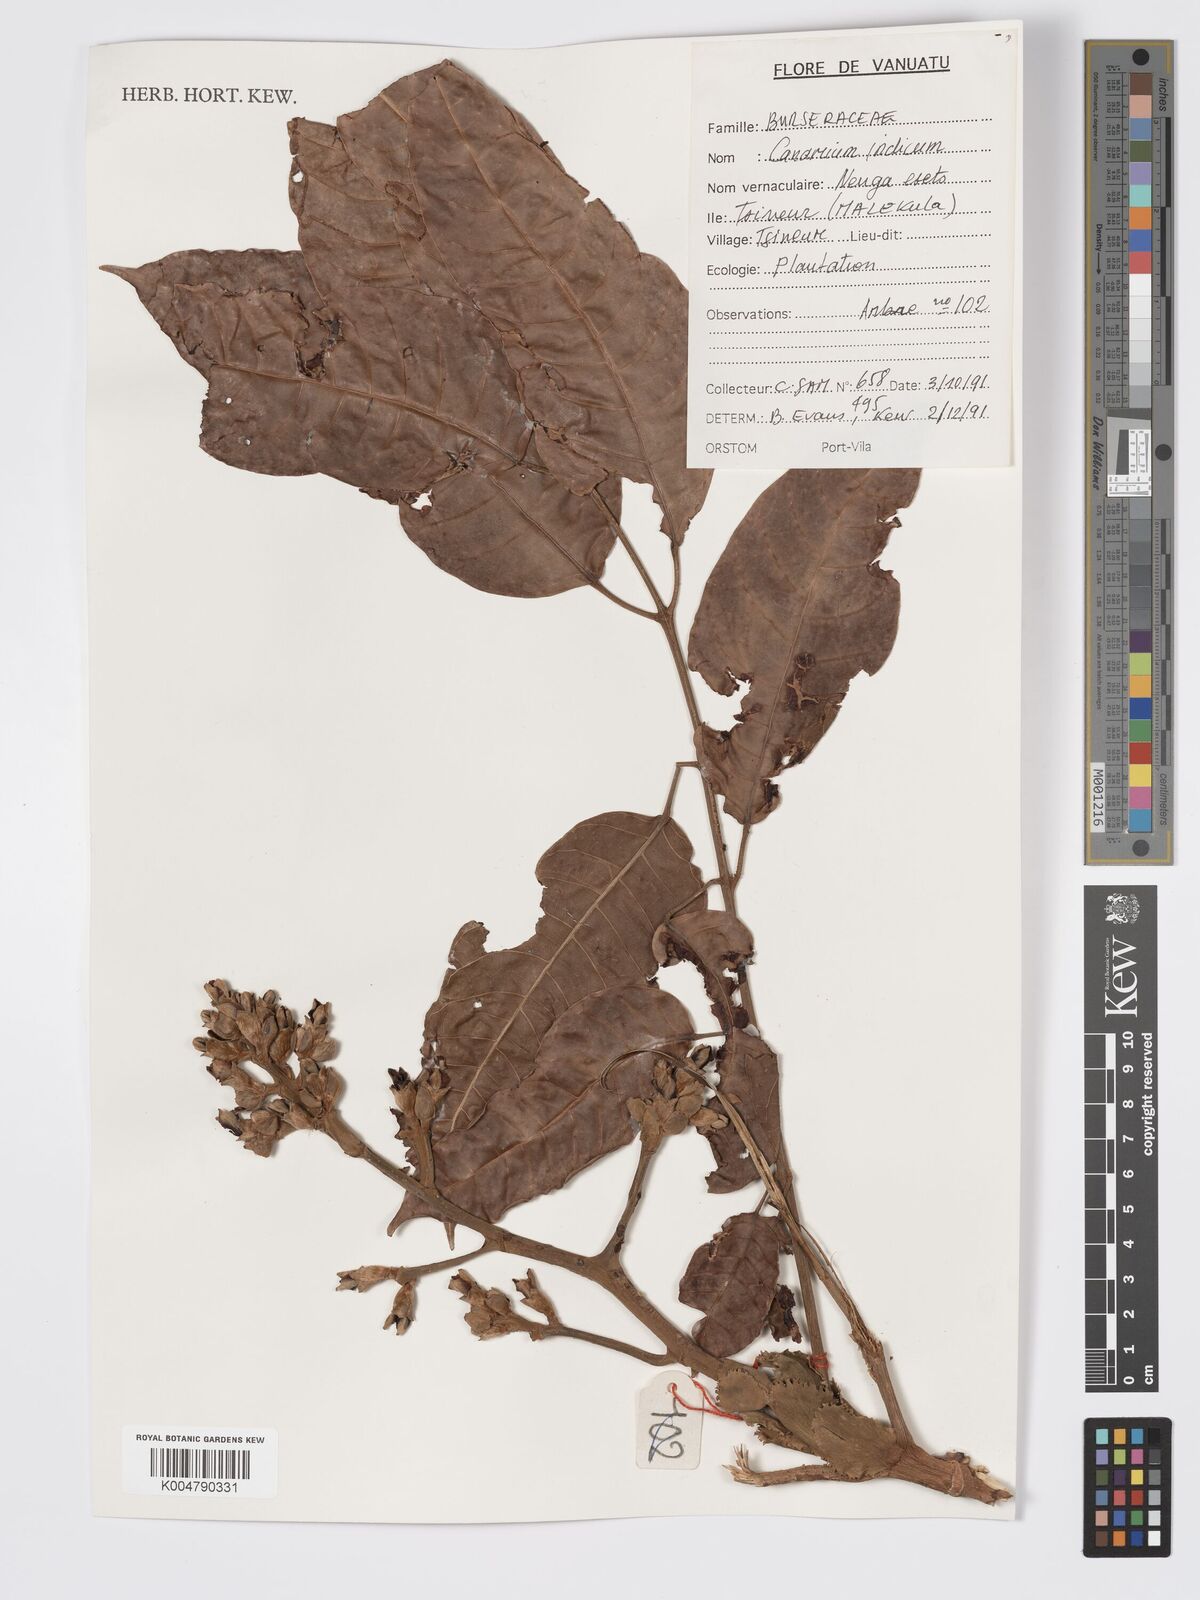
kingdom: Plantae
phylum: Tracheophyta
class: Magnoliopsida
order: Sapindales
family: Burseraceae
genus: Canarium
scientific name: Canarium indicum
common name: Canarium-nut
